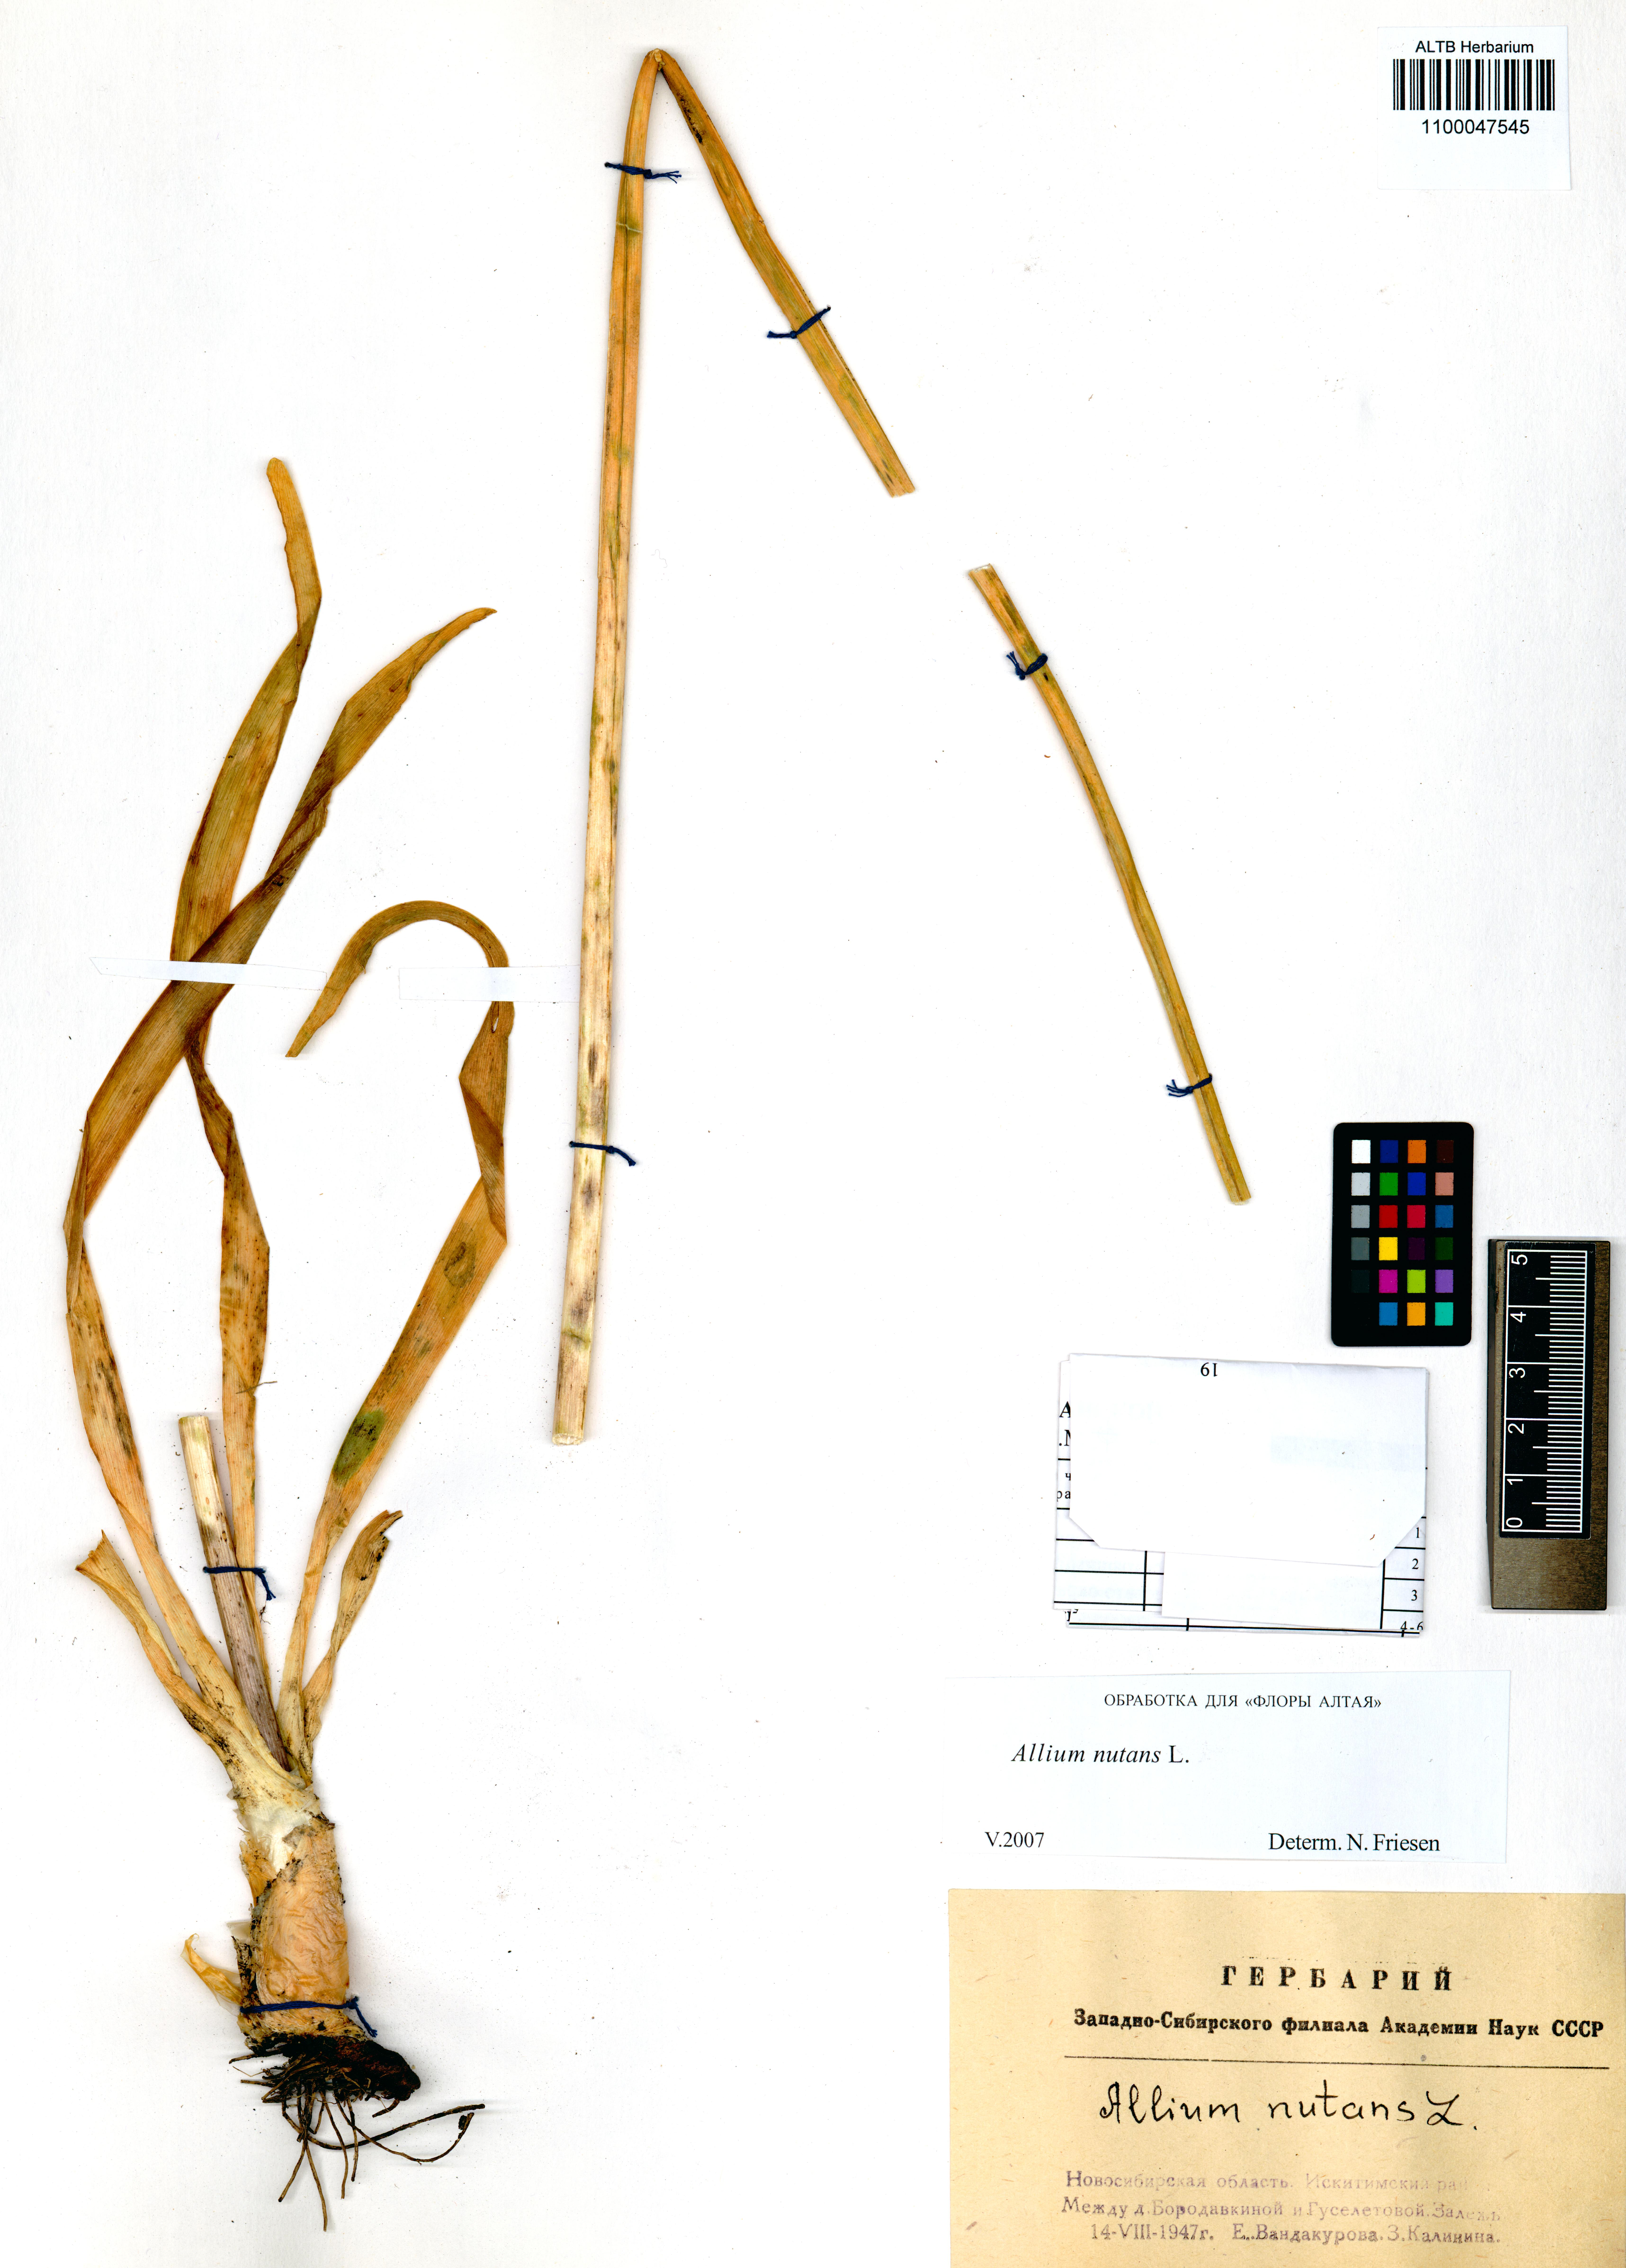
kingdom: Plantae
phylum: Tracheophyta
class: Liliopsida
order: Asparagales
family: Amaryllidaceae
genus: Allium
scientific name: Allium nutans
